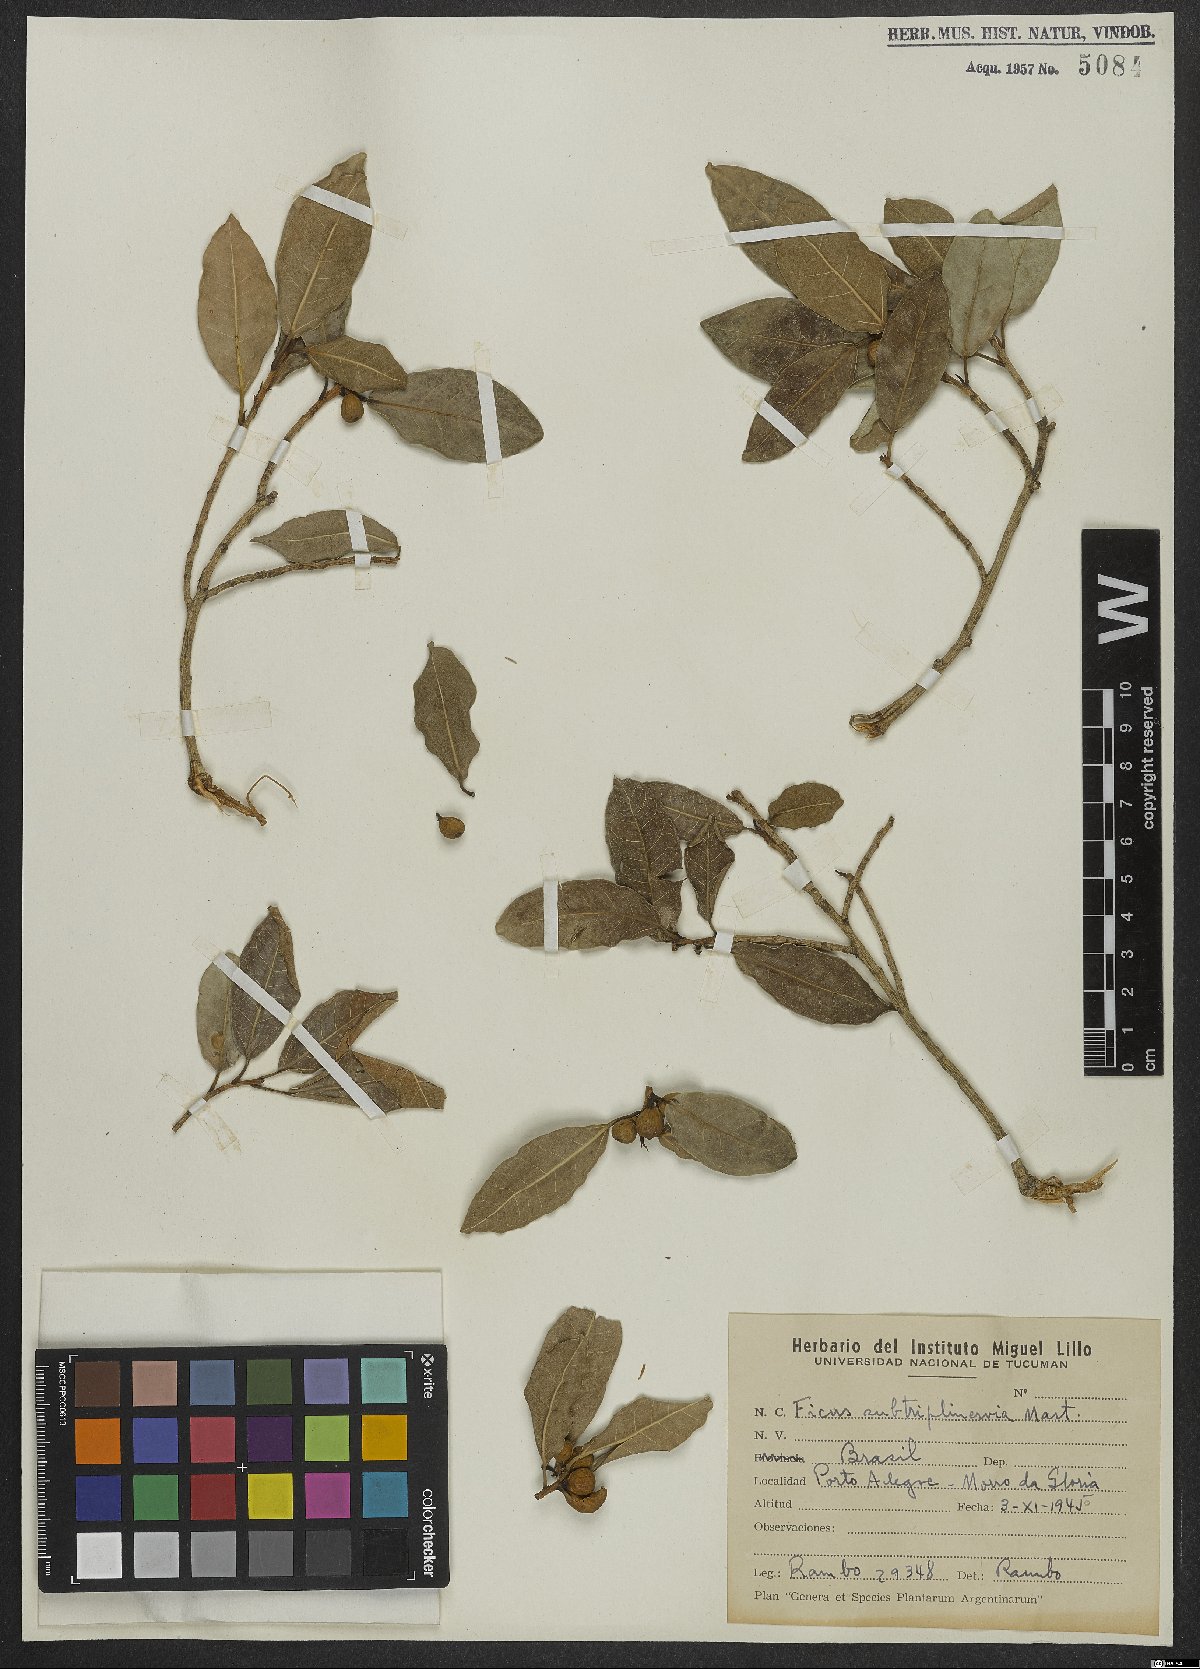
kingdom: Plantae
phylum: Tracheophyta
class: Magnoliopsida
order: Rosales
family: Moraceae
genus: Ficus
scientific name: Ficus pertusa
